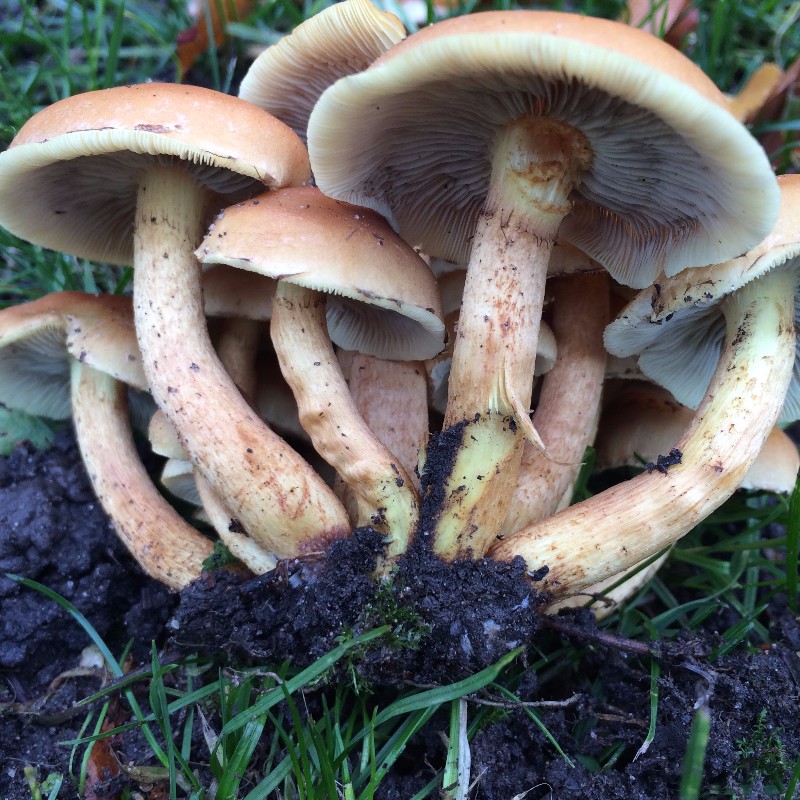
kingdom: Fungi
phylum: Basidiomycota
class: Agaricomycetes
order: Agaricales
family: Strophariaceae
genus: Hypholoma
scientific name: Hypholoma fasciculare
